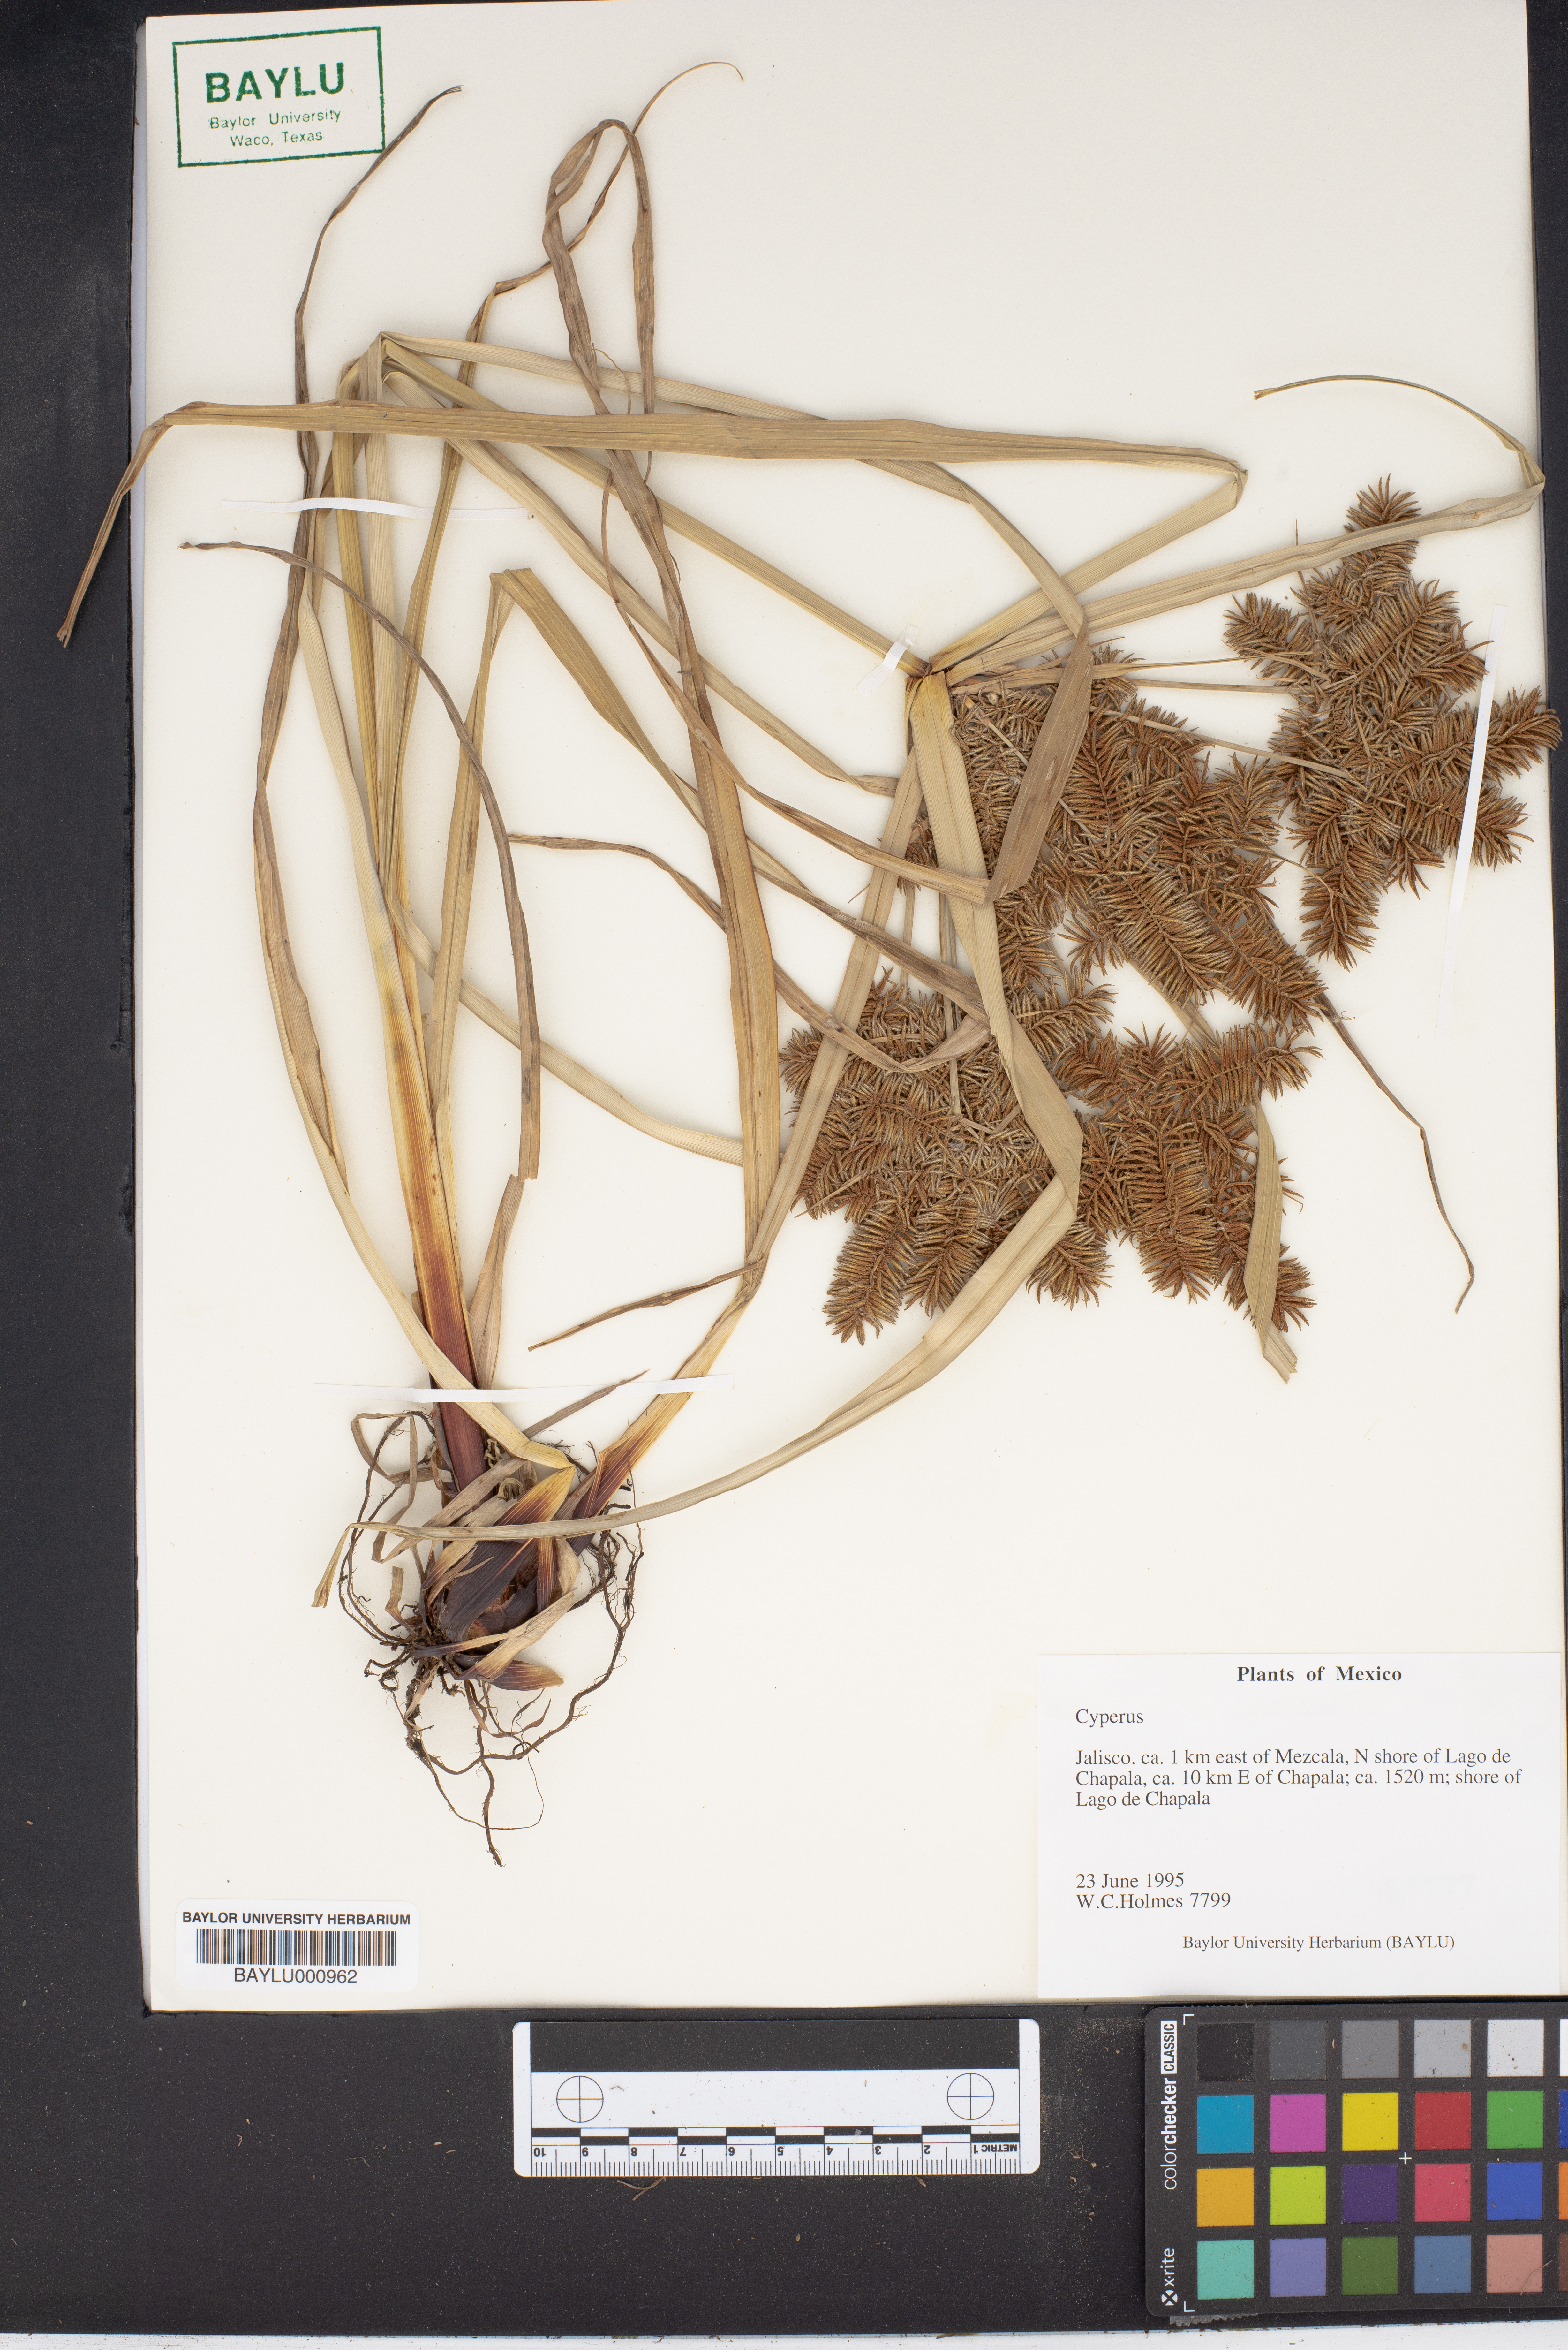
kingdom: Plantae
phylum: Tracheophyta
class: Liliopsida
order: Poales
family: Cyperaceae
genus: Cyperus
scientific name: Cyperus
